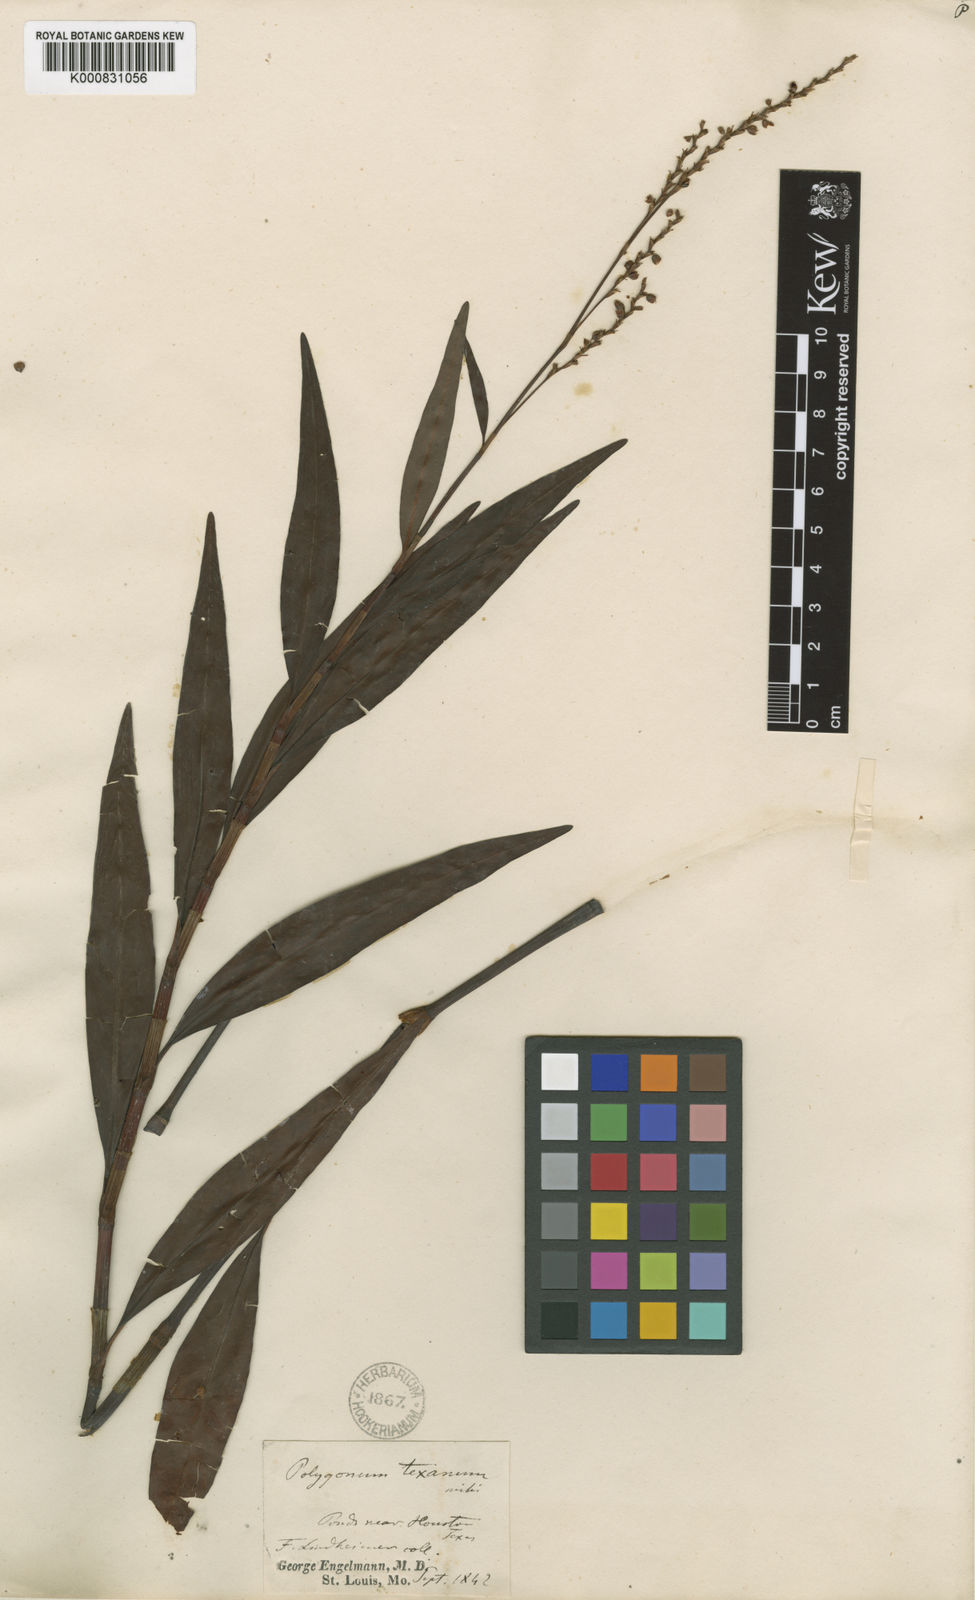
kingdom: Plantae
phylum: Tracheophyta
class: Magnoliopsida
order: Caryophyllales
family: Polygonaceae
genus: Polygonum
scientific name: Polygonum
